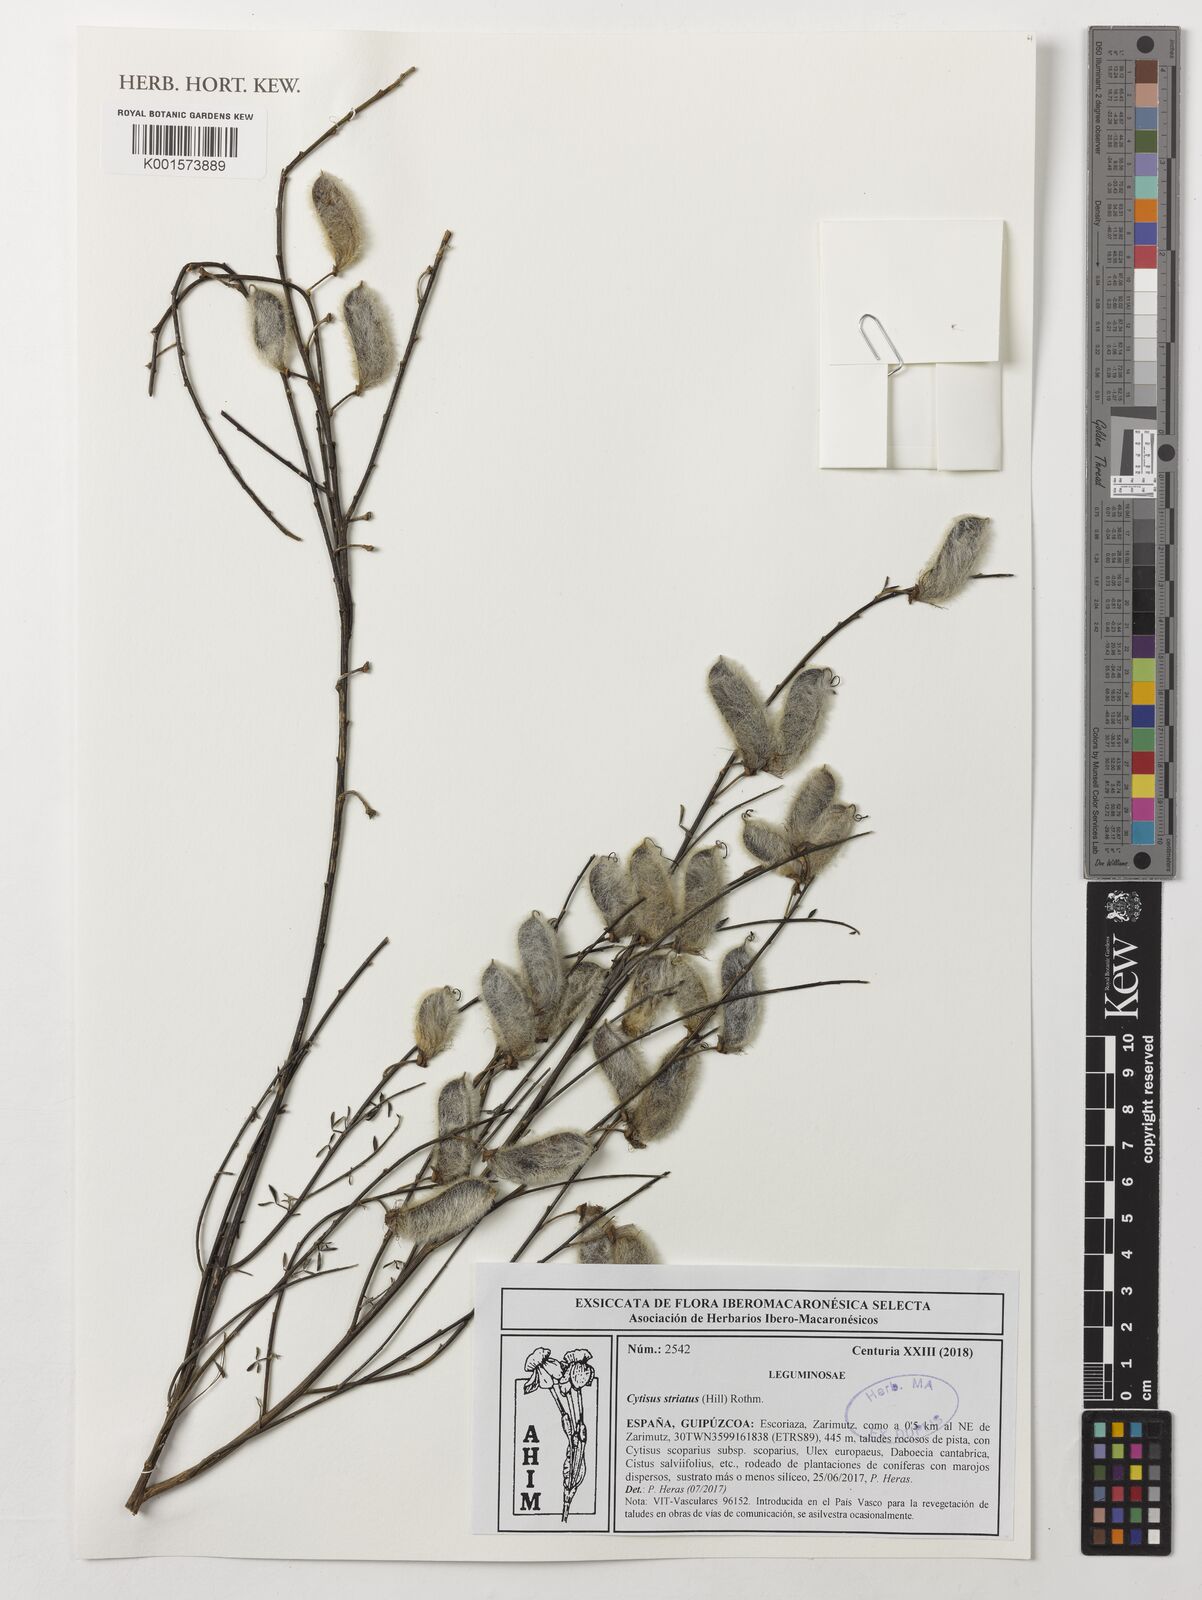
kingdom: Plantae
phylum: Tracheophyta
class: Magnoliopsida
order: Fabales
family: Fabaceae
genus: Cytisus
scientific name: Cytisus striatus
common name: Hairy-fruited broom
